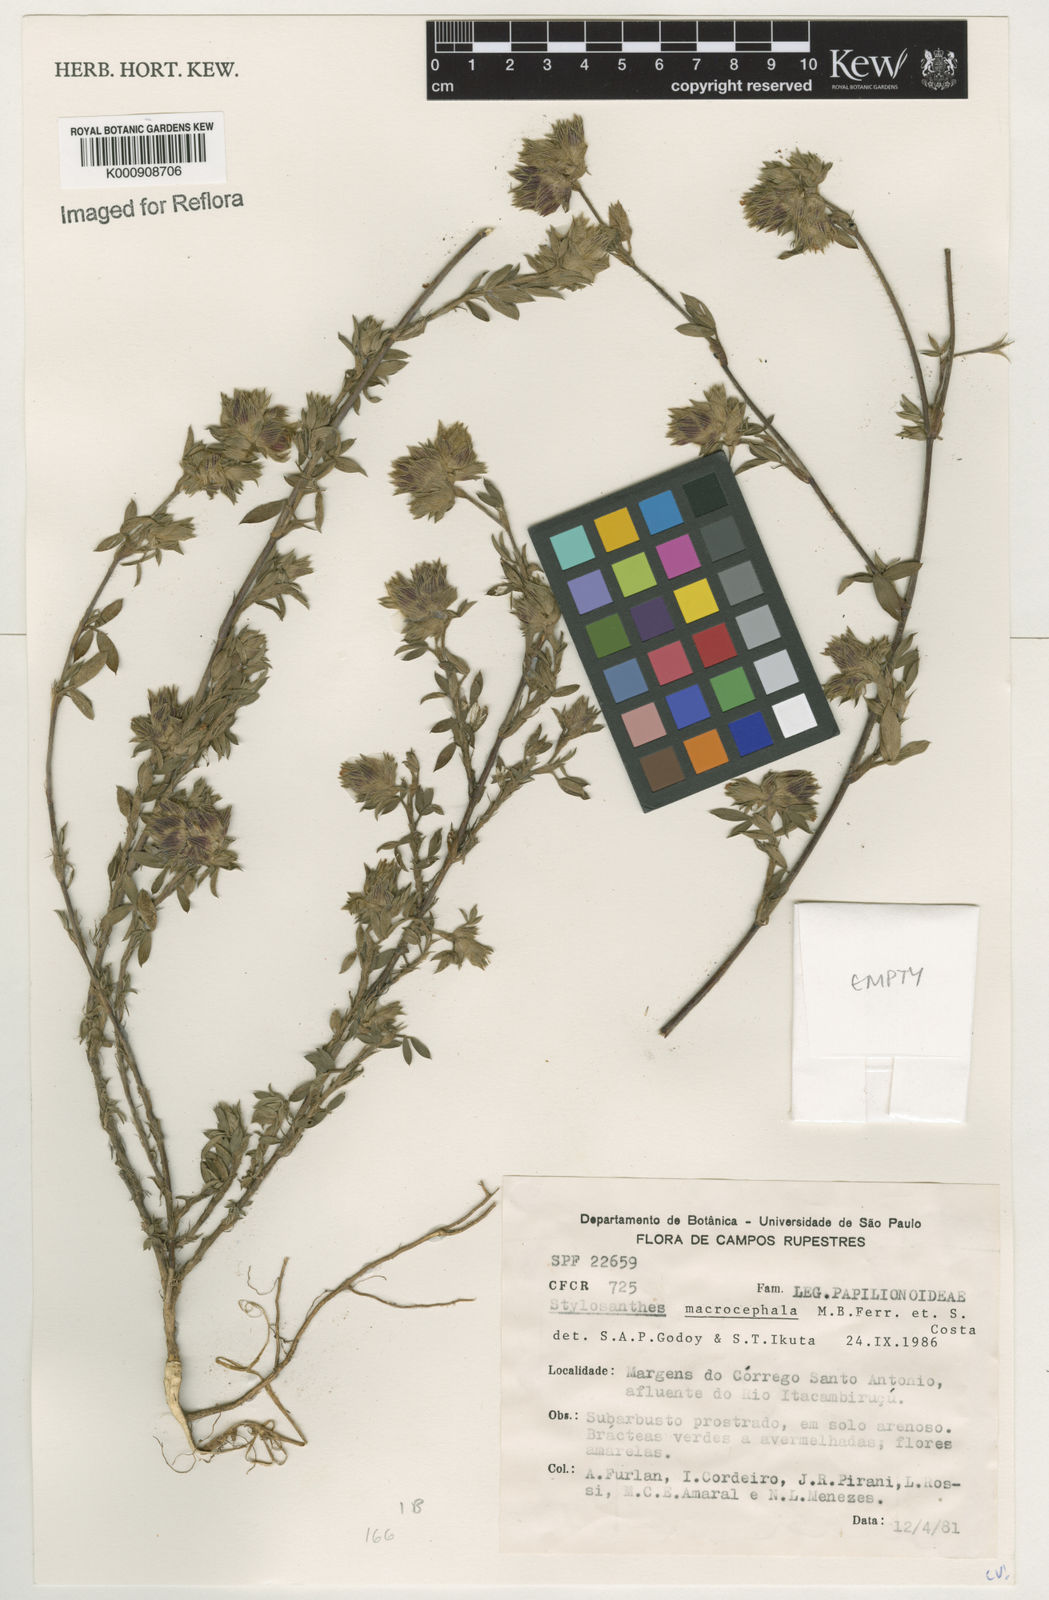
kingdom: Plantae
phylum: Tracheophyta
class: Magnoliopsida
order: Fabales
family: Fabaceae
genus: Stylosanthes
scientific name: Stylosanthes macrocephala
